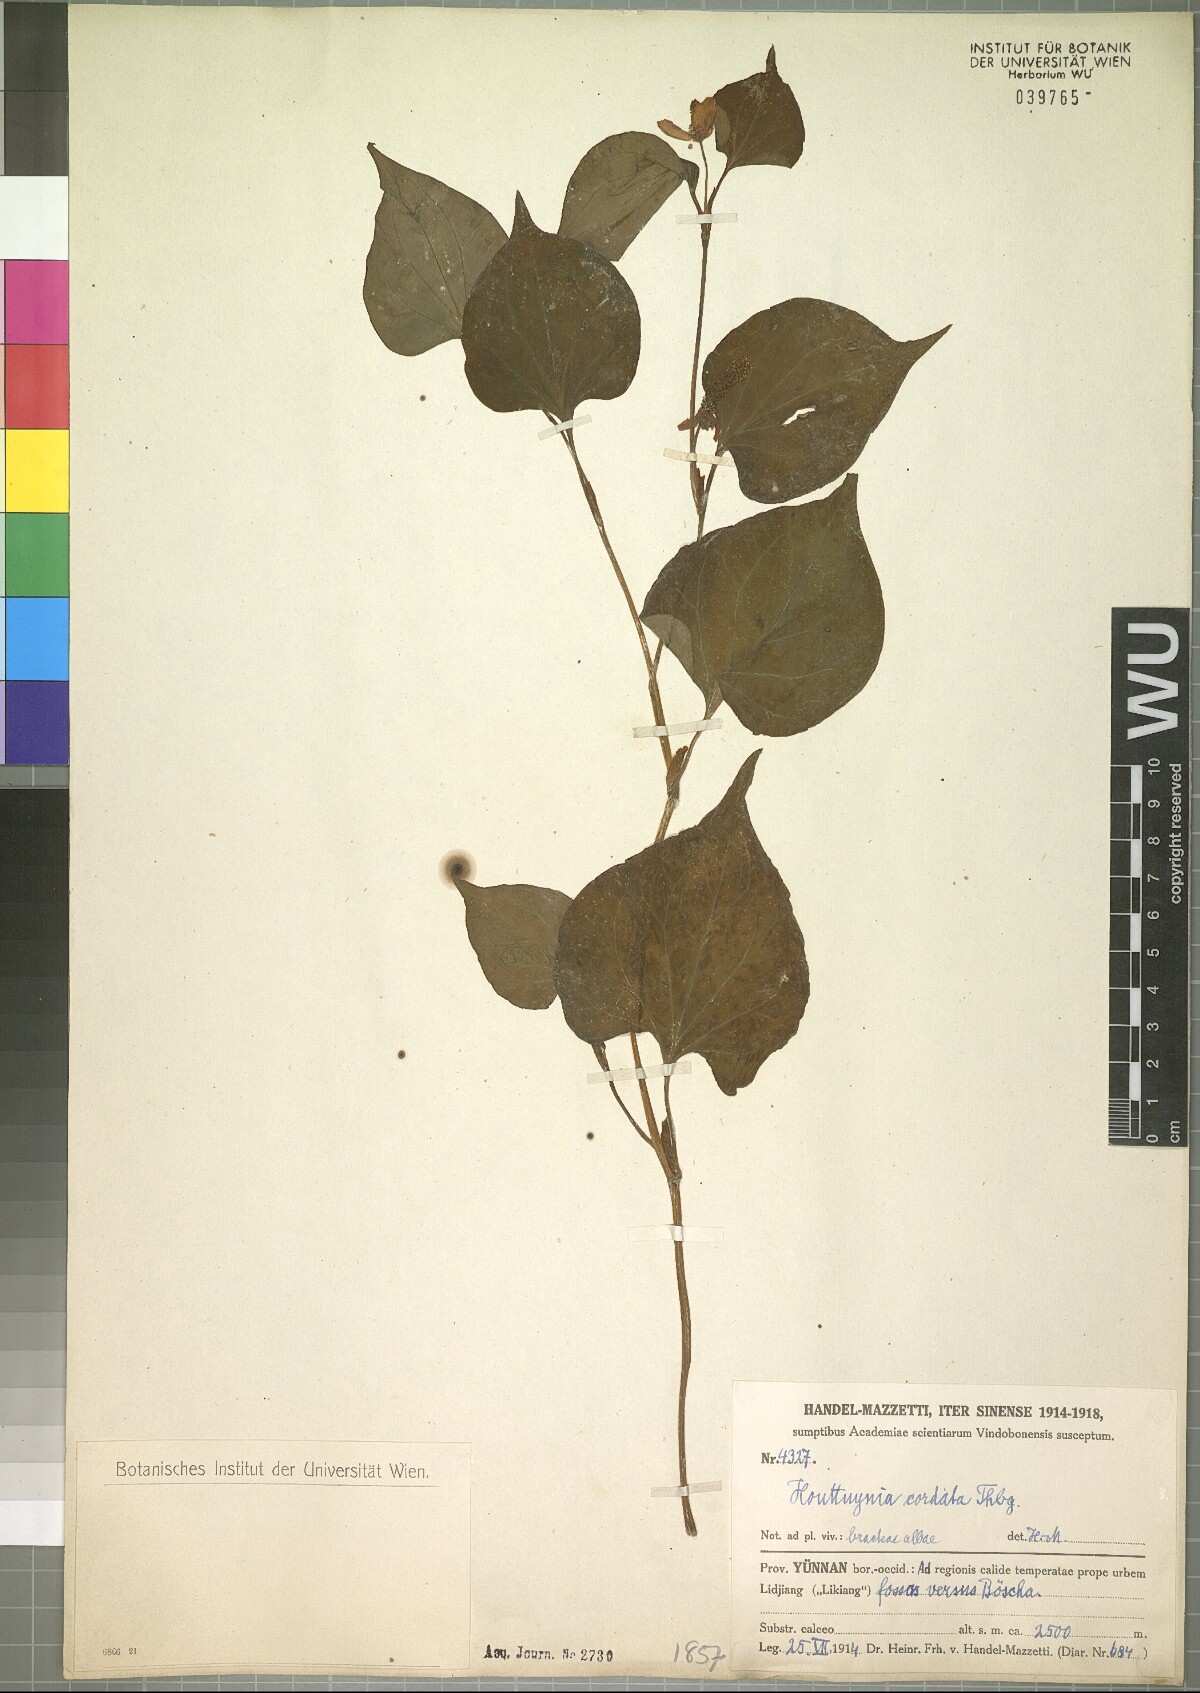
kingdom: Plantae
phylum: Tracheophyta
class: Magnoliopsida
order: Piperales
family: Saururaceae
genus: Houttuynia
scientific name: Houttuynia cordata
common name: Chameleon
